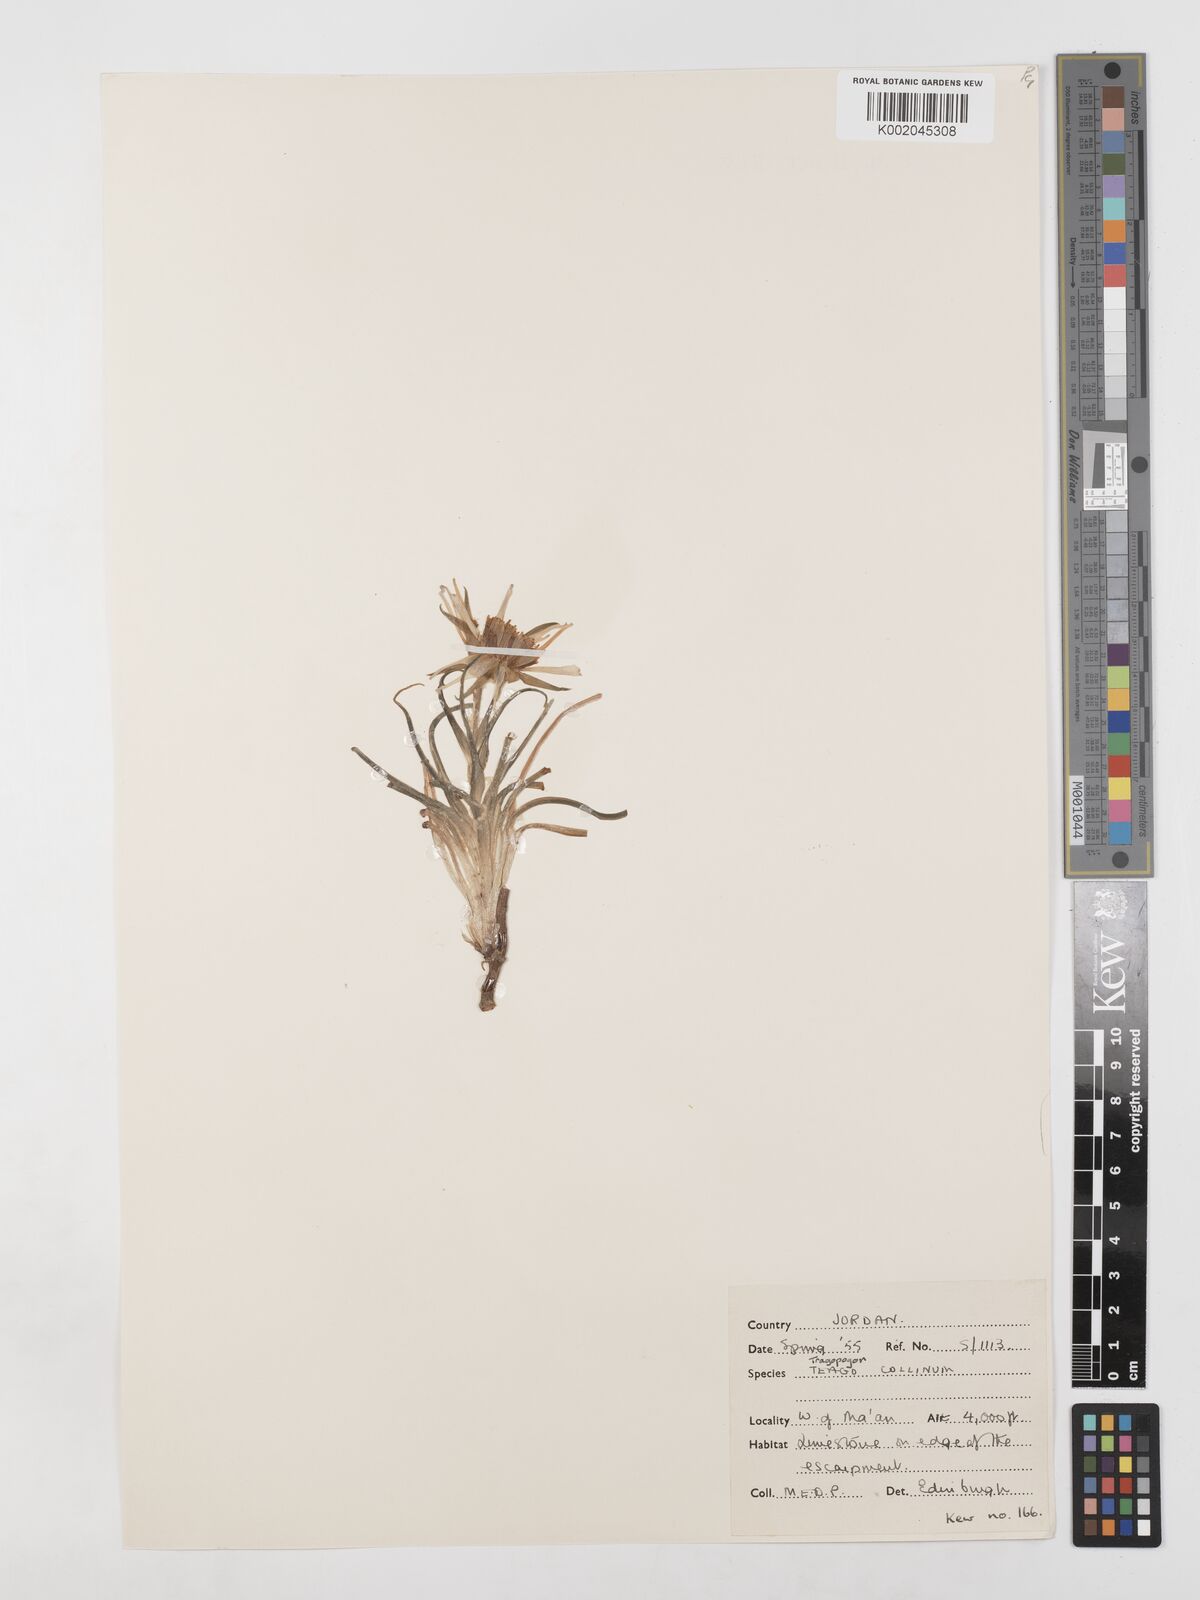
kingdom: Plantae
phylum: Tracheophyta
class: Magnoliopsida
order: Asterales
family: Asteraceae
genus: Tragopogon
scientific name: Tragopogon collinus
